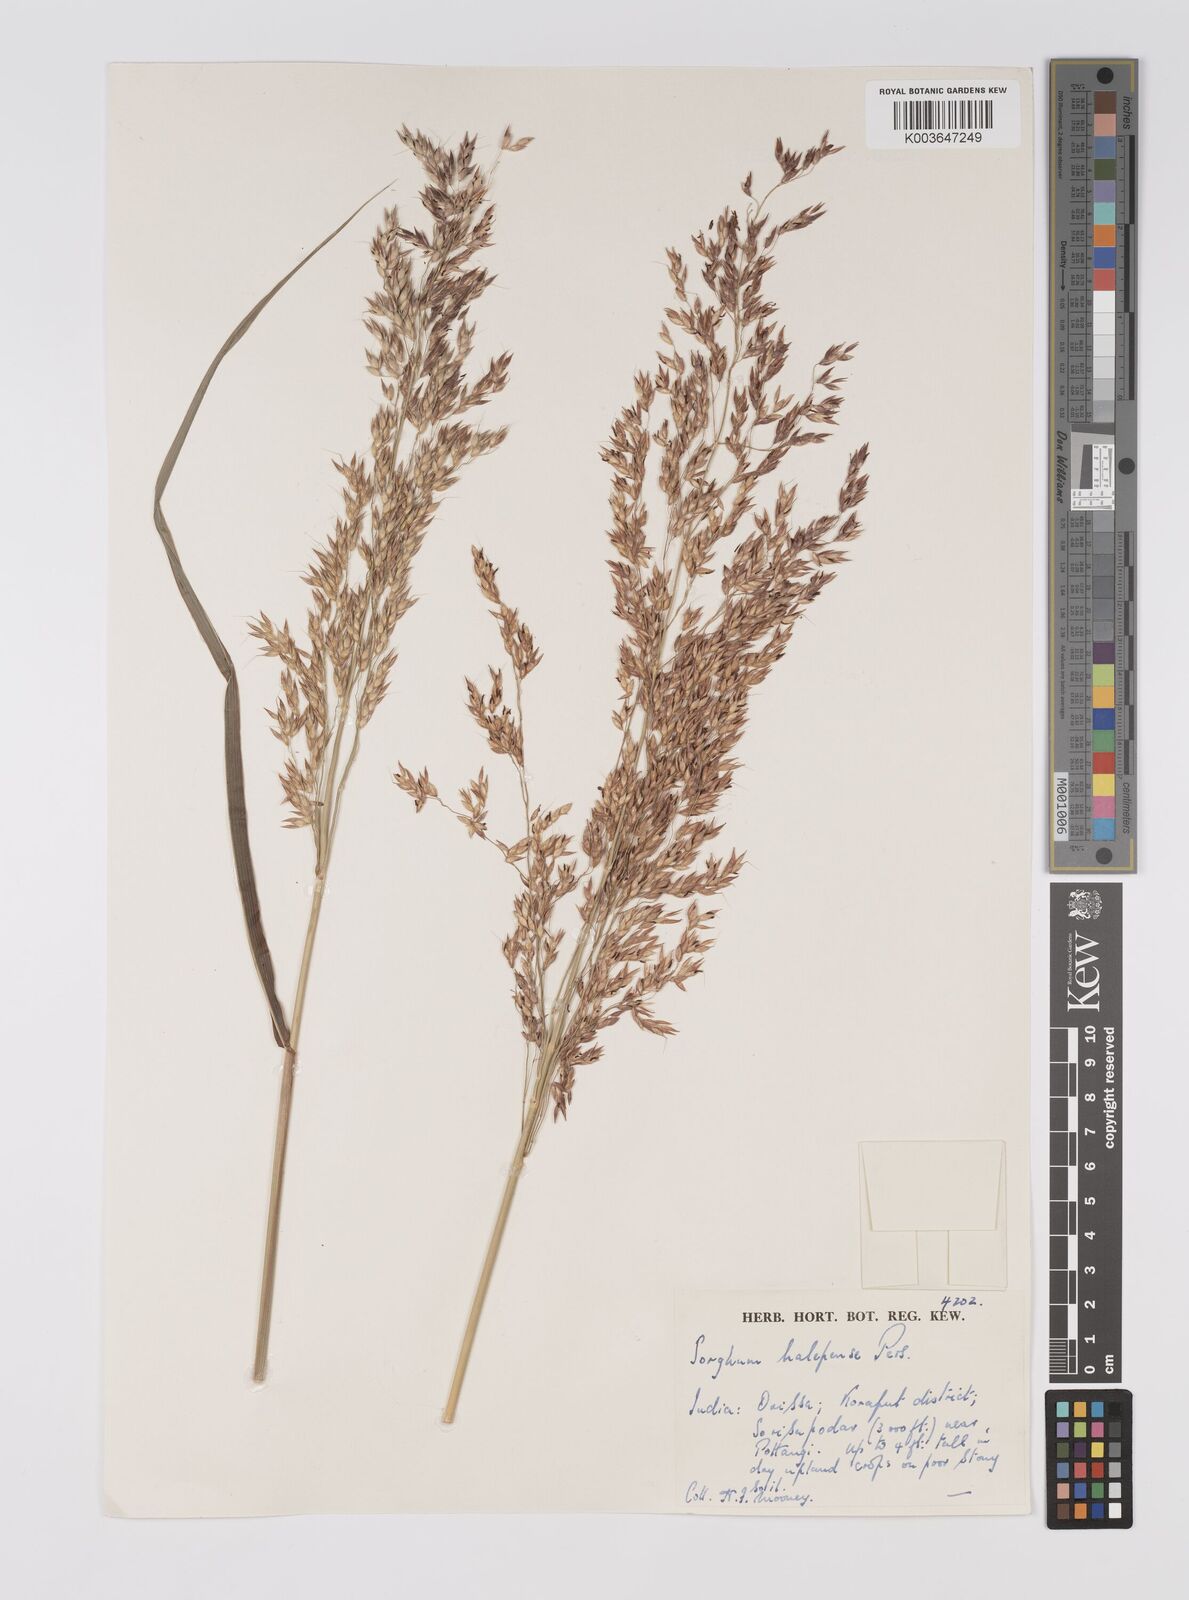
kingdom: Plantae
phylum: Tracheophyta
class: Liliopsida
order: Poales
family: Poaceae
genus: Sorghum
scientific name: Sorghum halepense
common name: Johnson-grass
